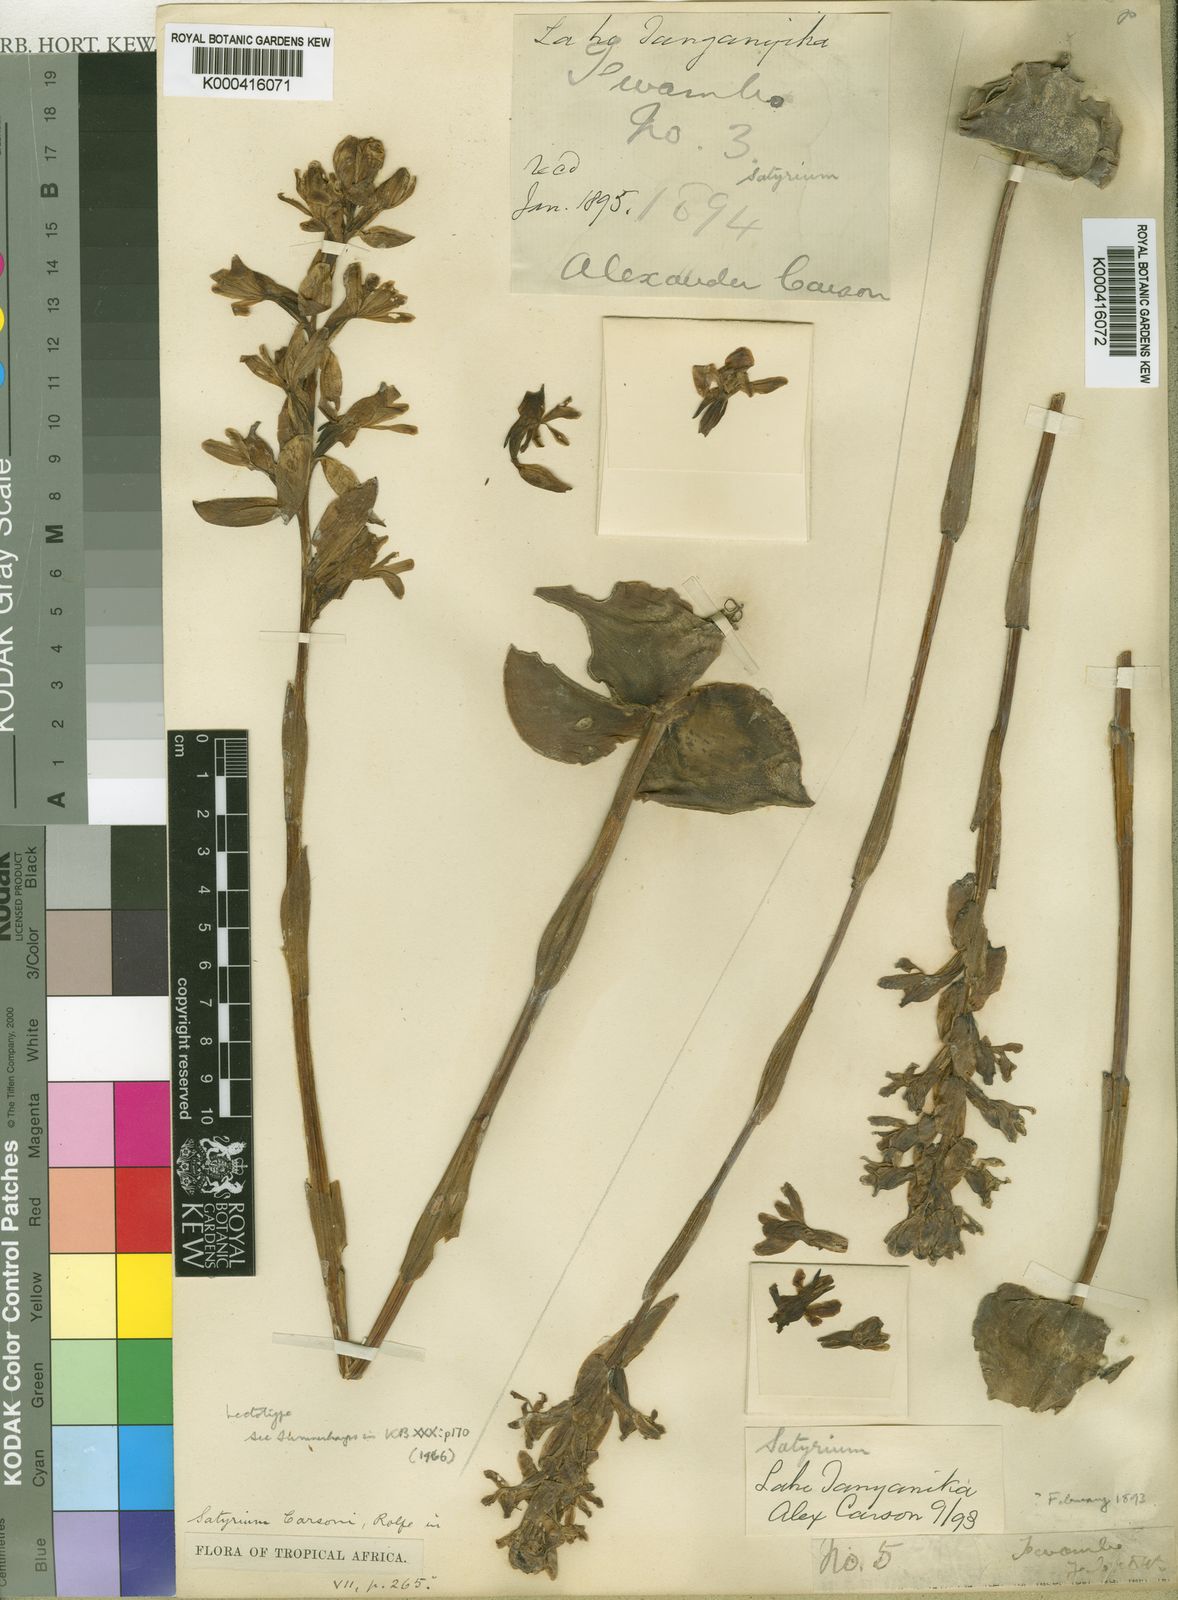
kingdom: Plantae
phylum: Tracheophyta
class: Liliopsida
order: Asparagales
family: Orchidaceae
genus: Satyrium
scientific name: Satyrium carsonii
